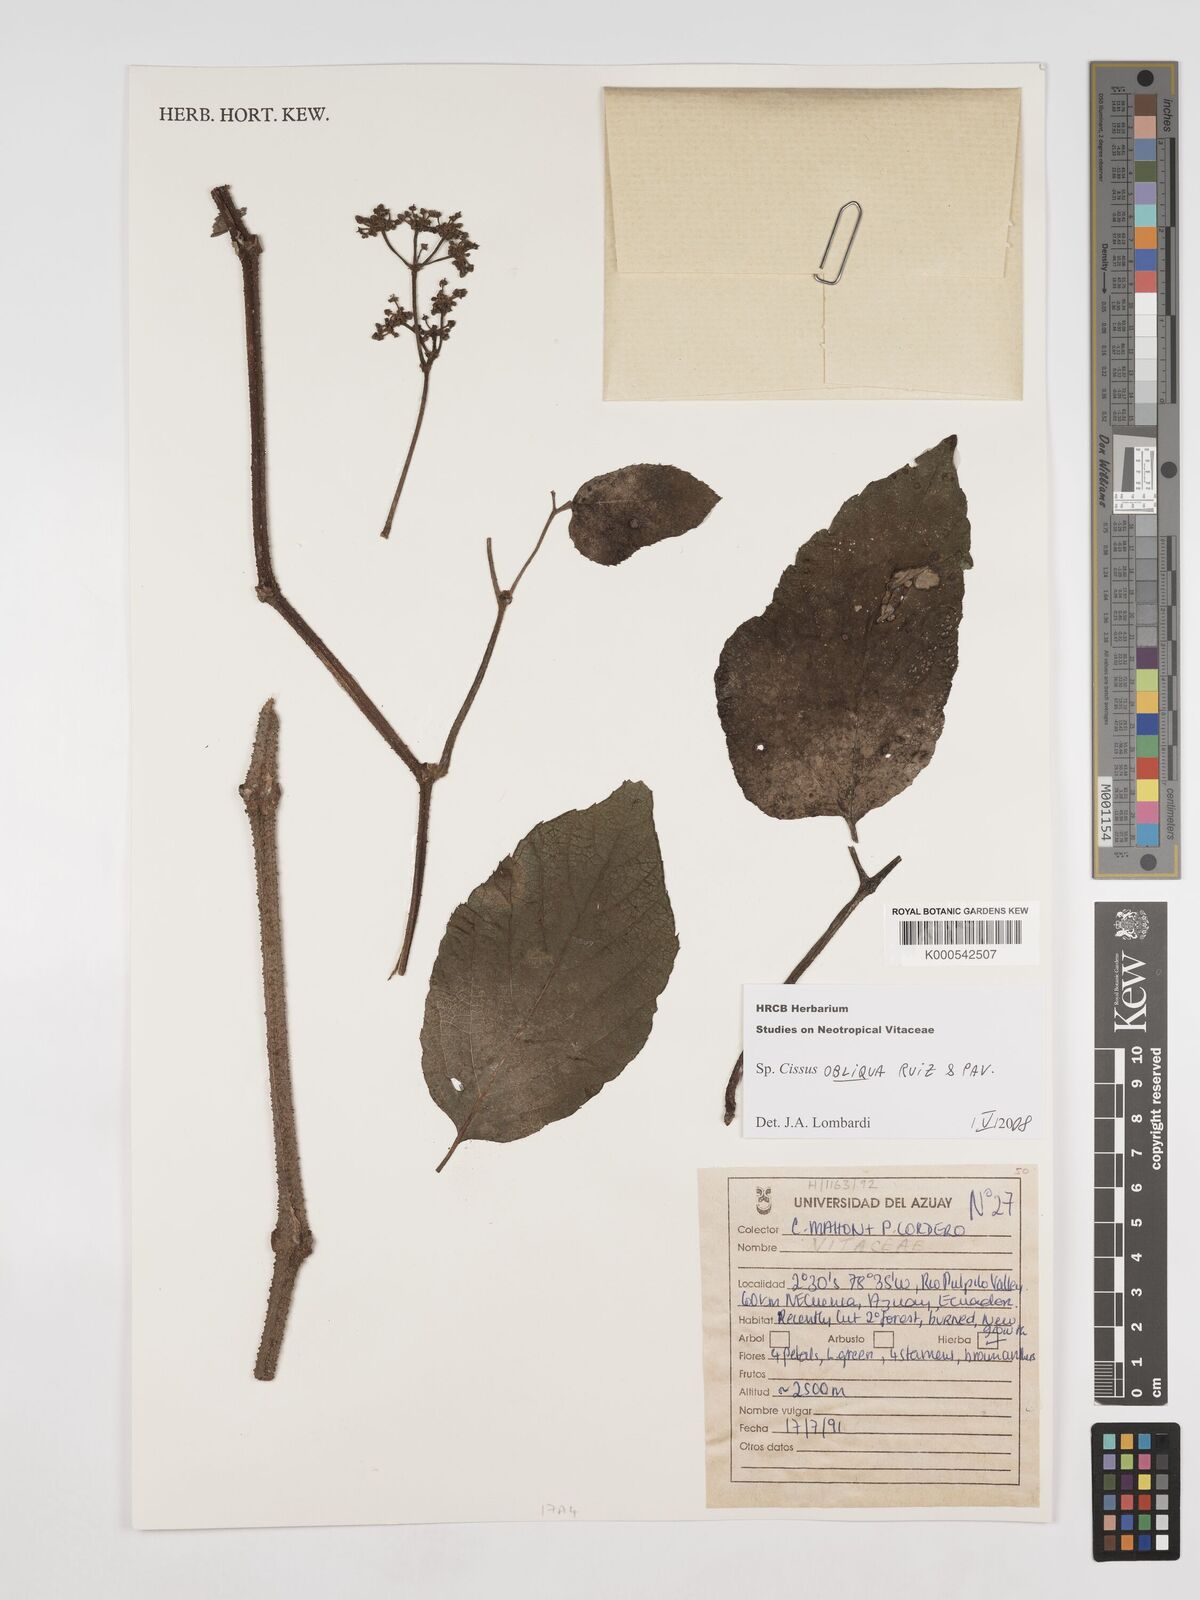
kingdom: Plantae
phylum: Tracheophyta
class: Magnoliopsida
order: Vitales
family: Vitaceae
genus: Cissus
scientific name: Cissus obliqua
